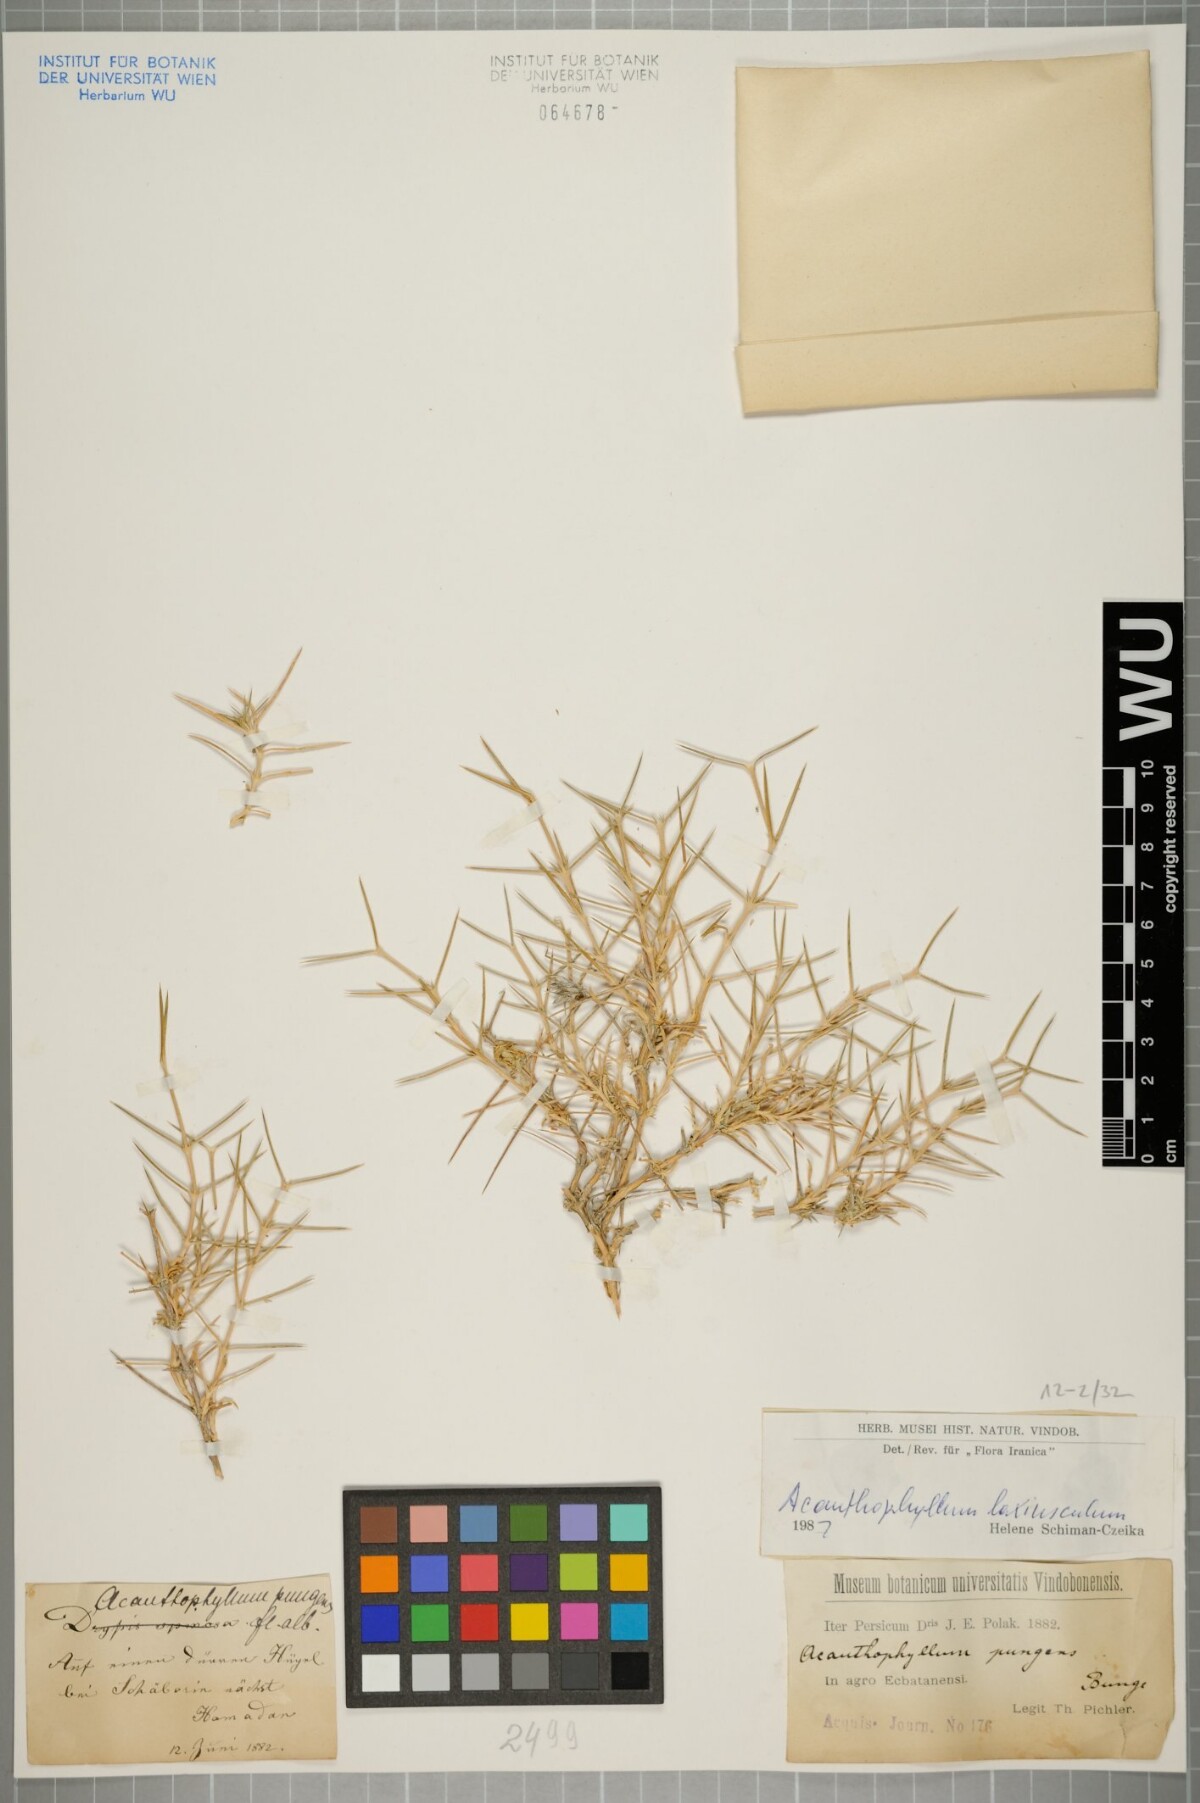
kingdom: Plantae
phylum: Tracheophyta
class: Magnoliopsida
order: Caryophyllales
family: Caryophyllaceae
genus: Acanthophyllum
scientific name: Acanthophyllum laxiusculum
